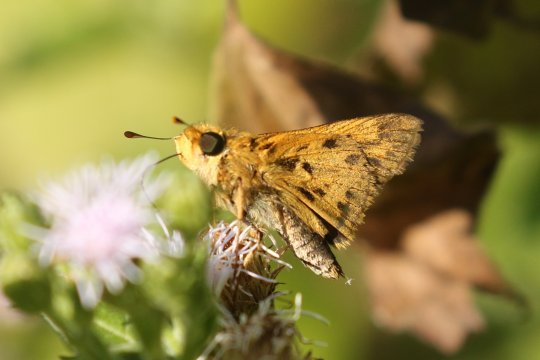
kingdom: Animalia
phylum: Arthropoda
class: Insecta
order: Lepidoptera
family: Hesperiidae
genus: Hylephila
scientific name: Hylephila phyleus
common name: Fiery Skipper
